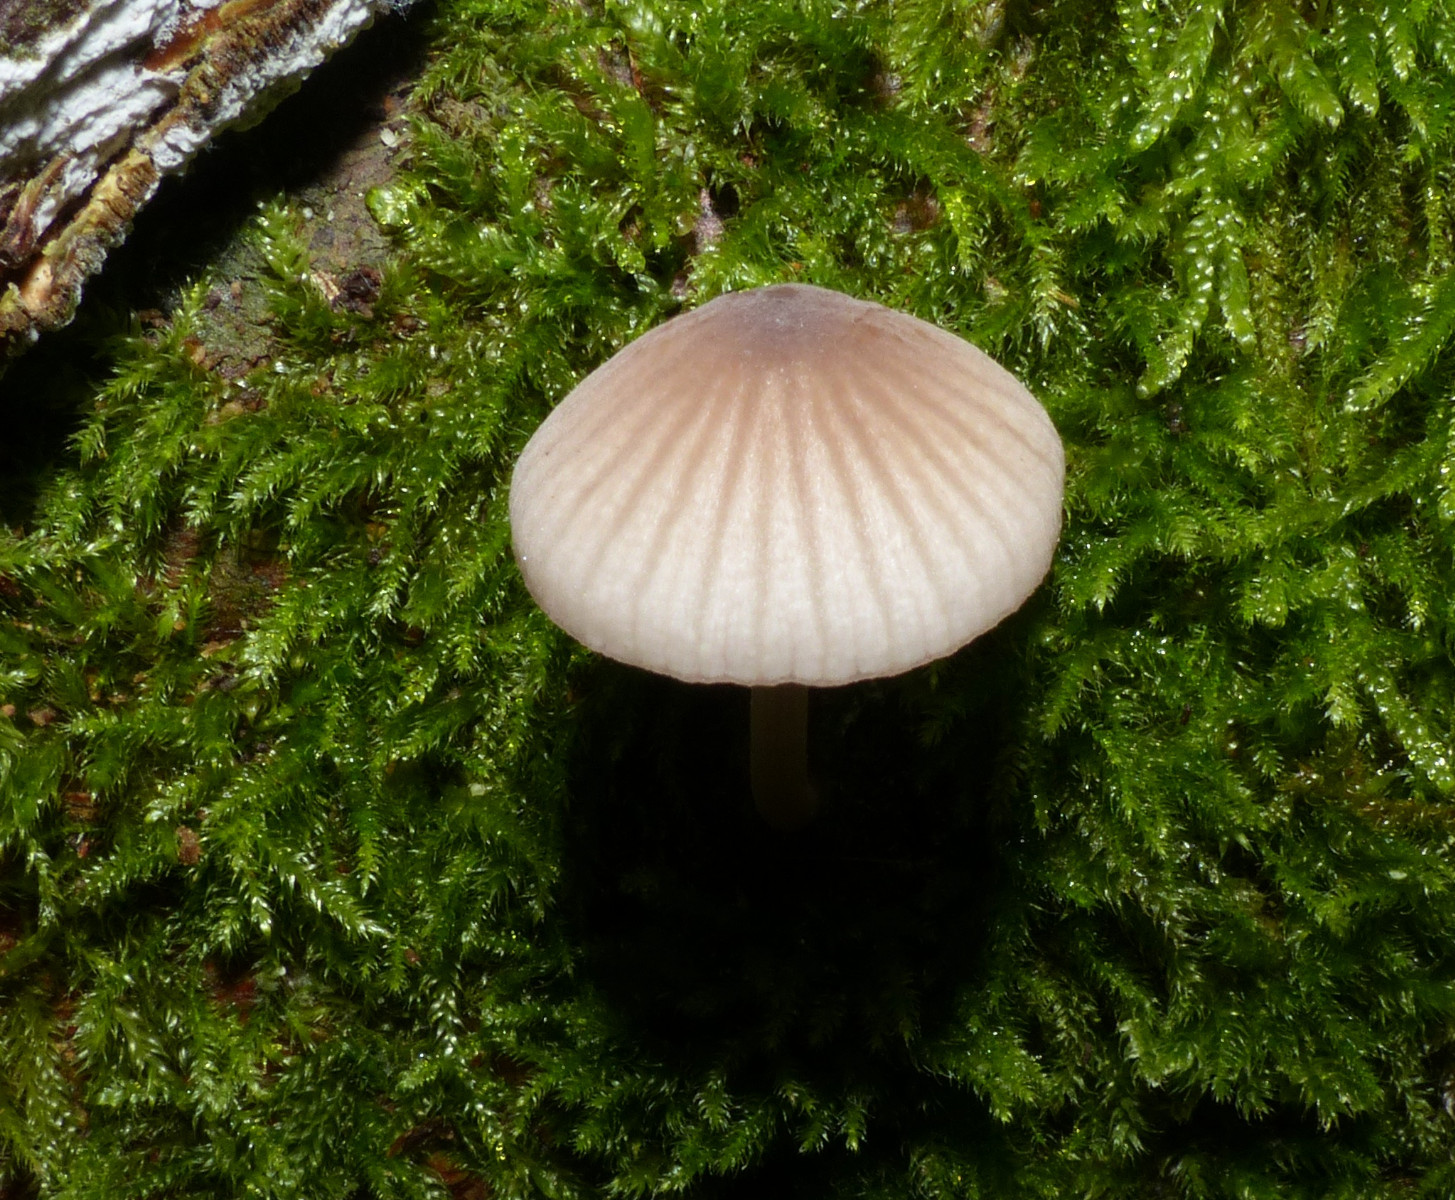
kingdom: Fungi
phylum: Basidiomycota
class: Agaricomycetes
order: Agaricales
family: Mycenaceae
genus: Mycena
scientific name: Mycena rubromarginata
